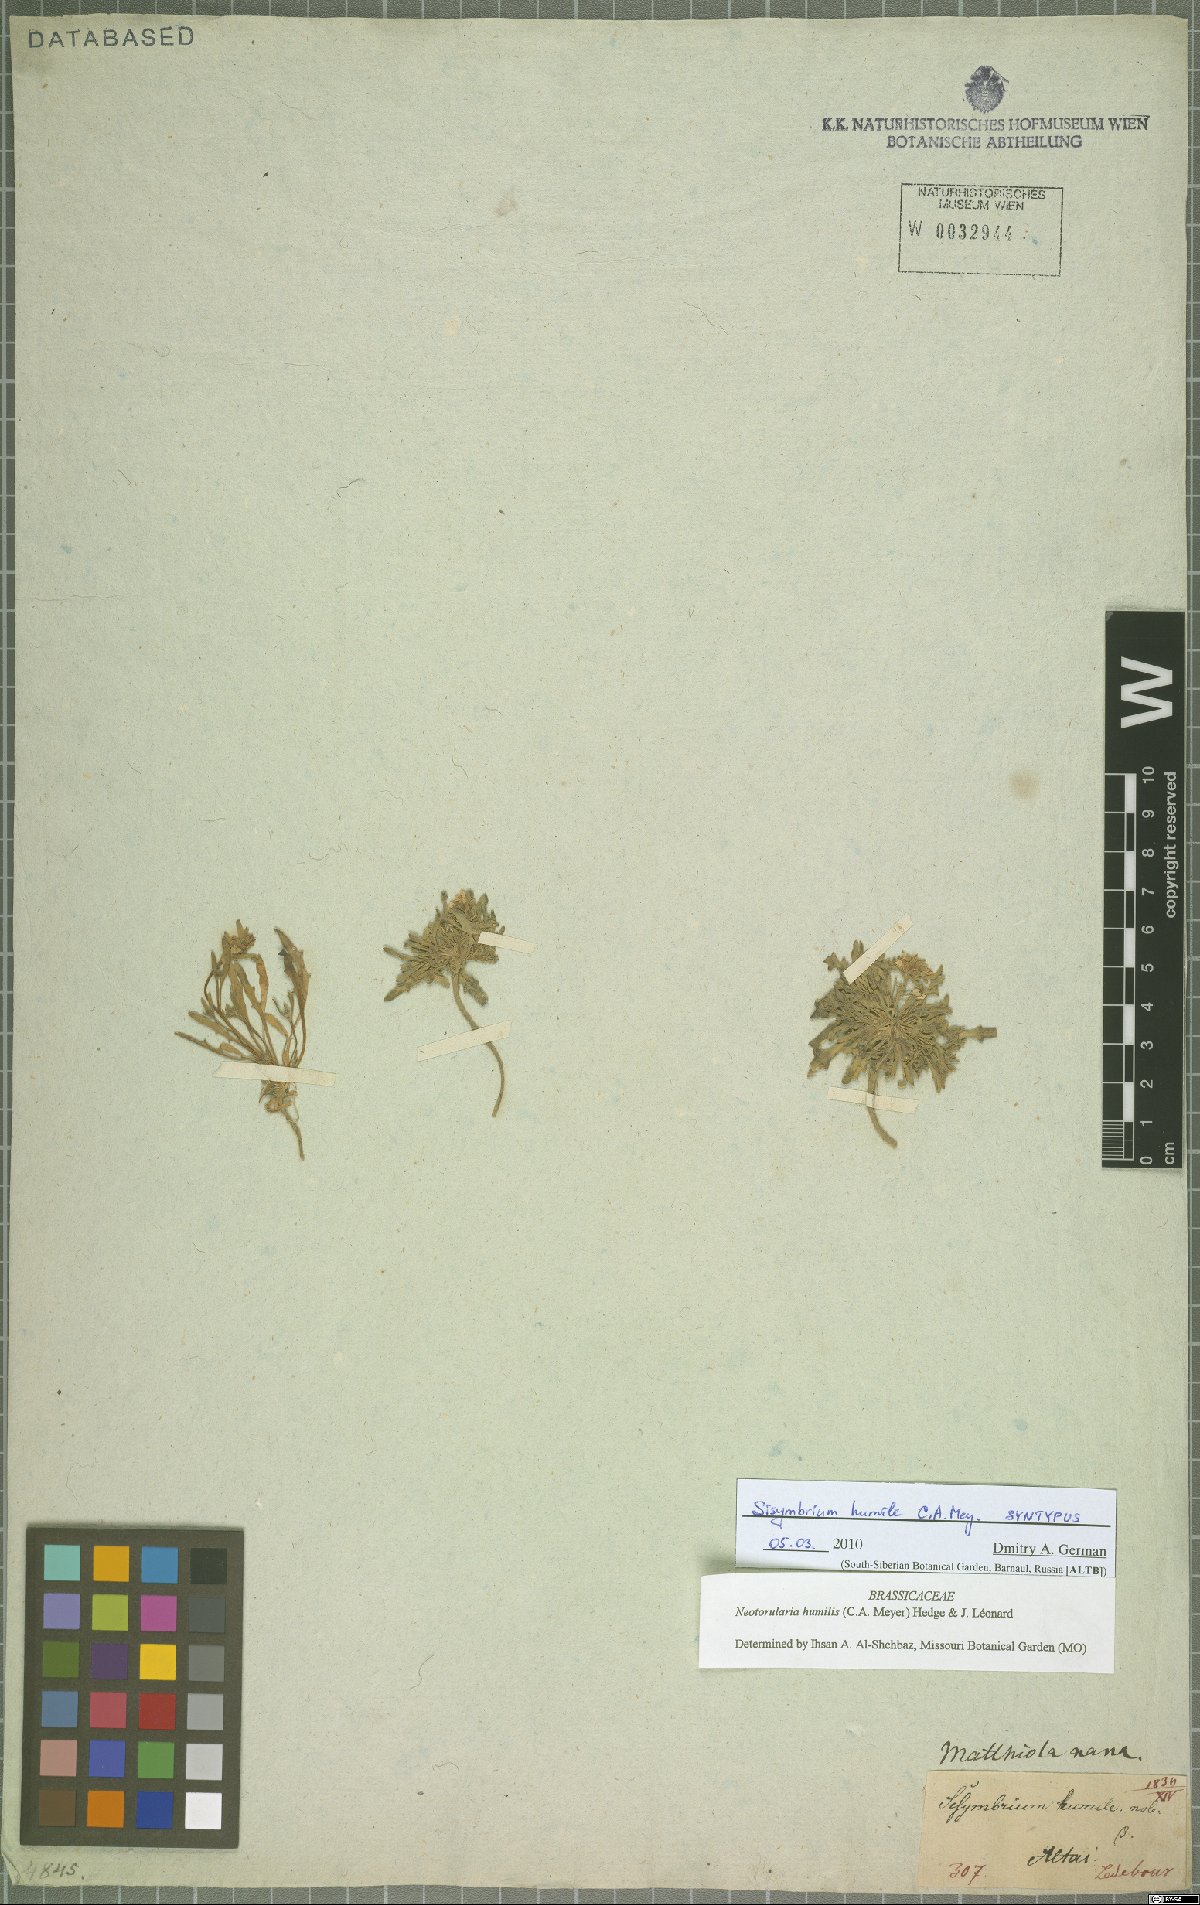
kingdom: Plantae
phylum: Tracheophyta
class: Magnoliopsida
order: Brassicales
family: Brassicaceae
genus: Braya
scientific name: Braya humilis
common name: Alpine northern rockcress
